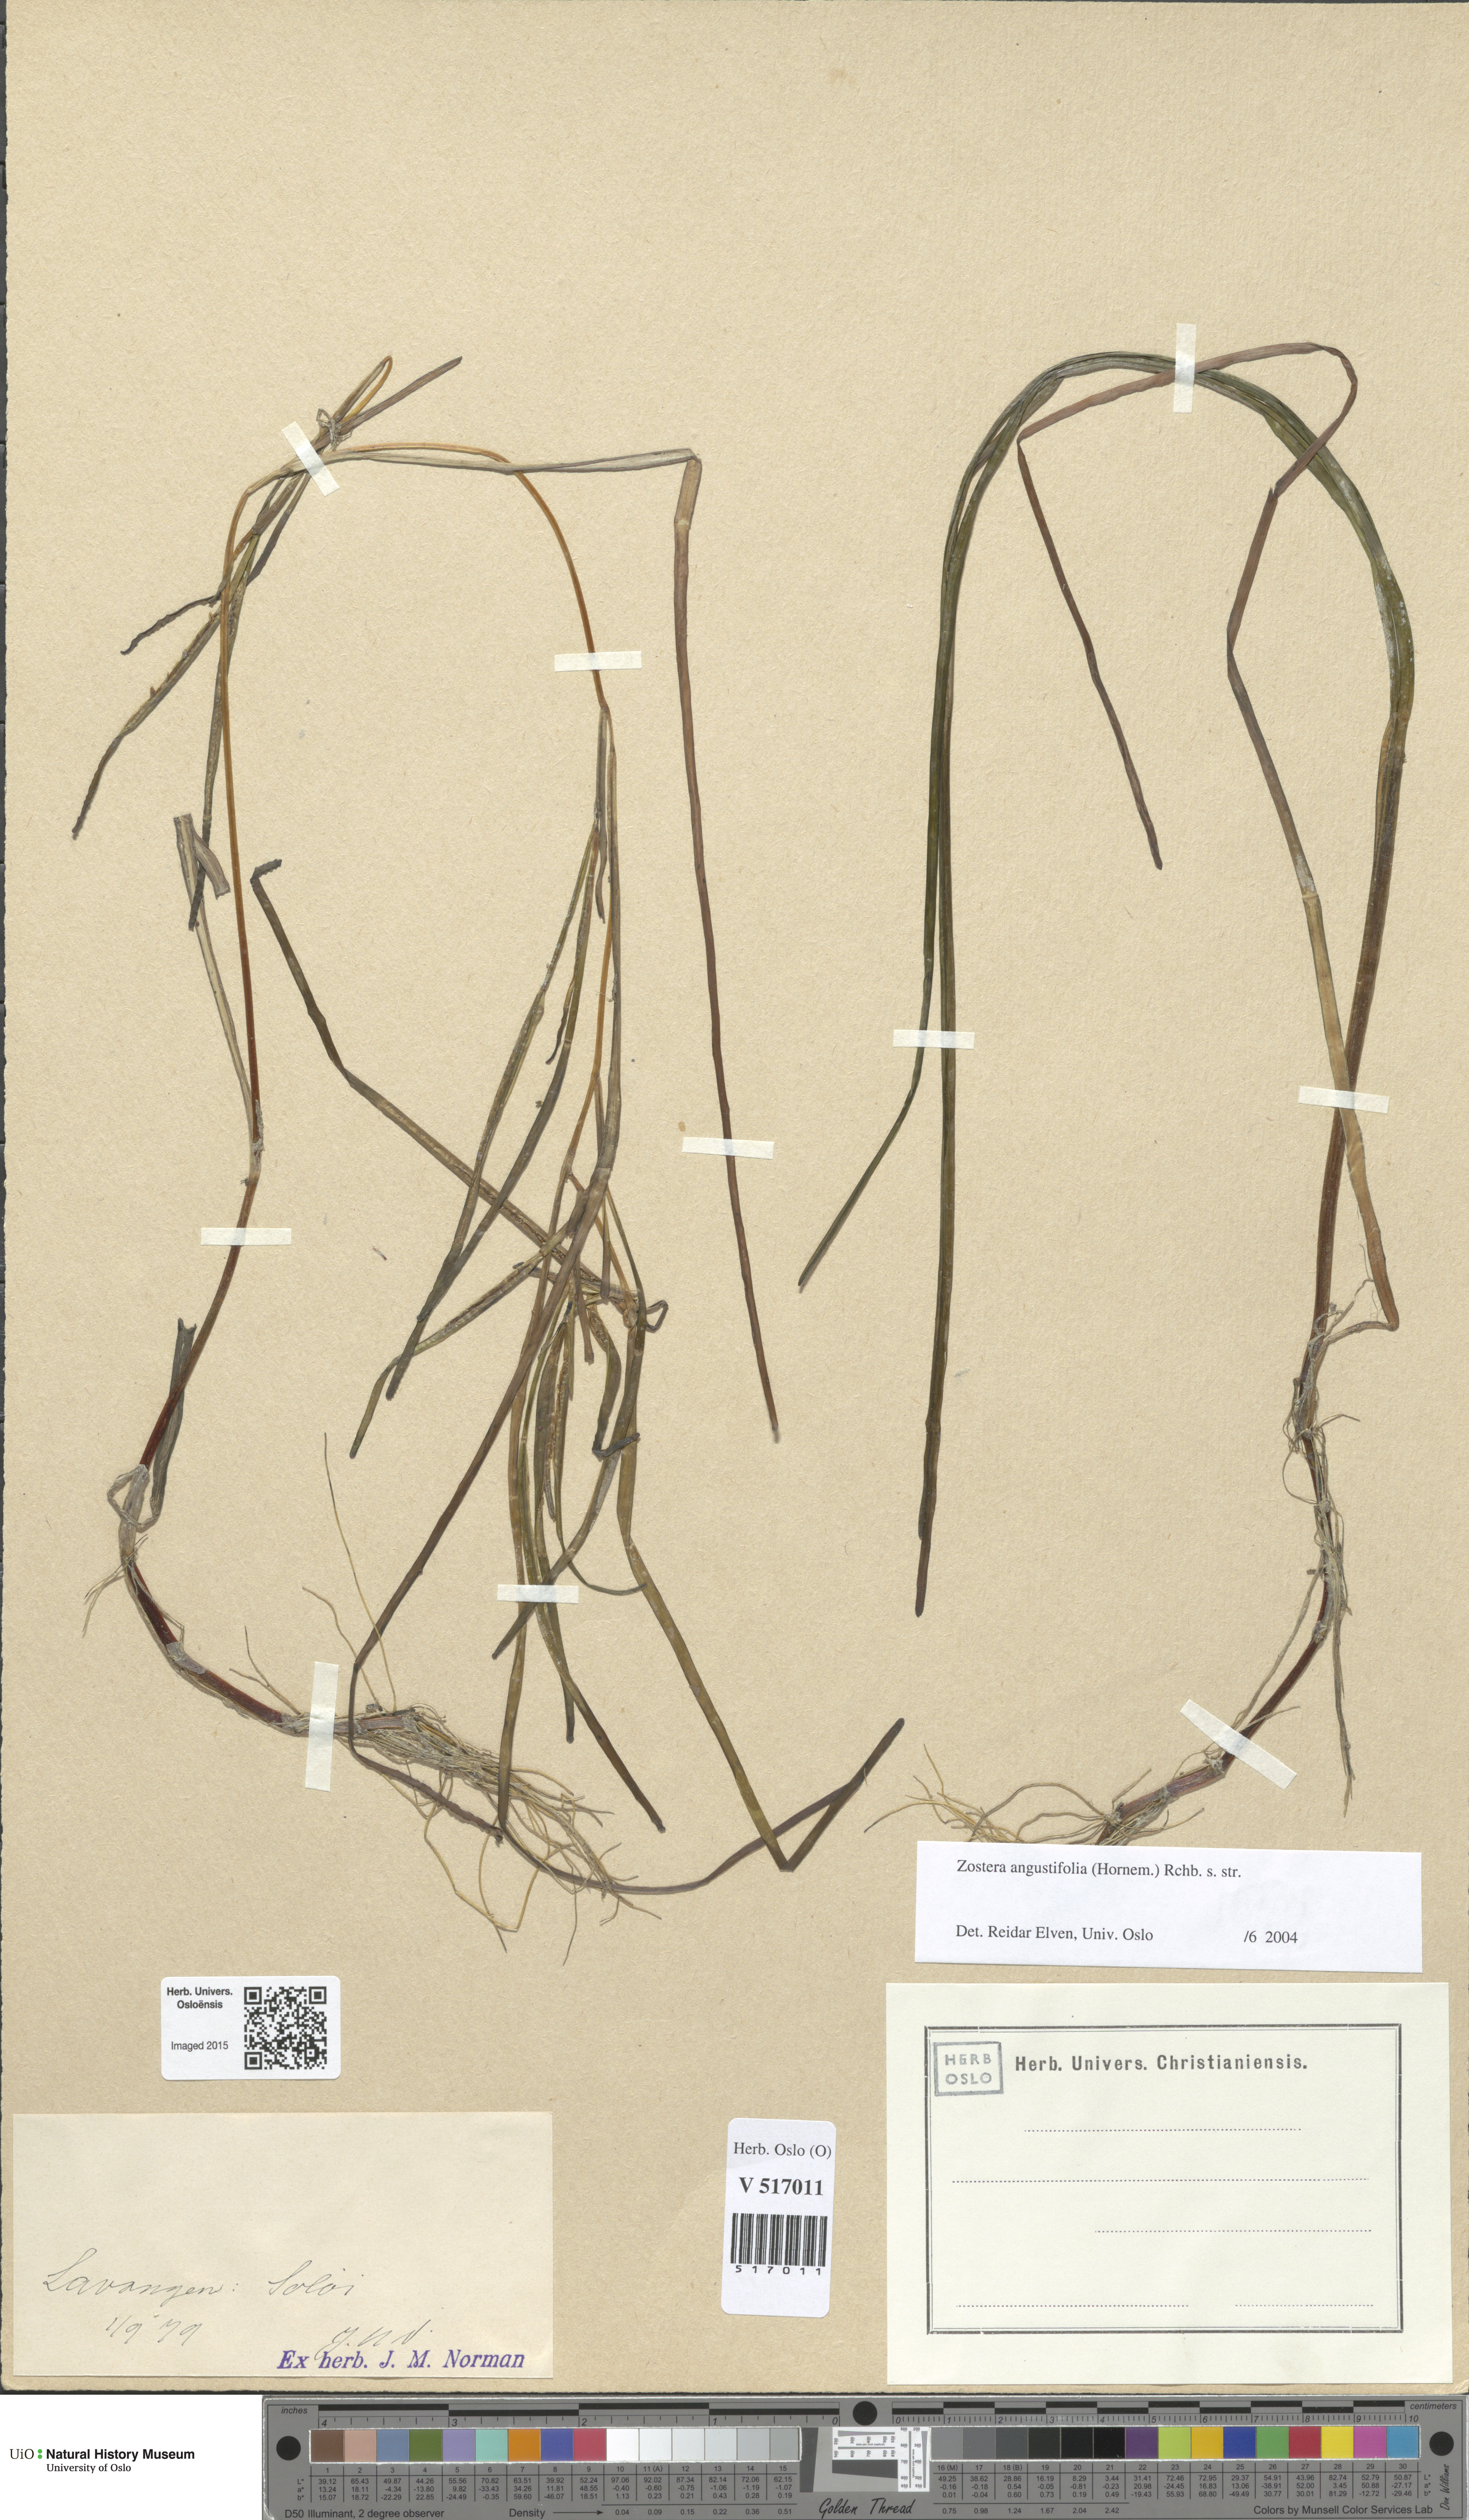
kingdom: Plantae
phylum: Tracheophyta
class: Liliopsida
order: Alismatales
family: Zosteraceae
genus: Zostera
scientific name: Zostera angustifolia
